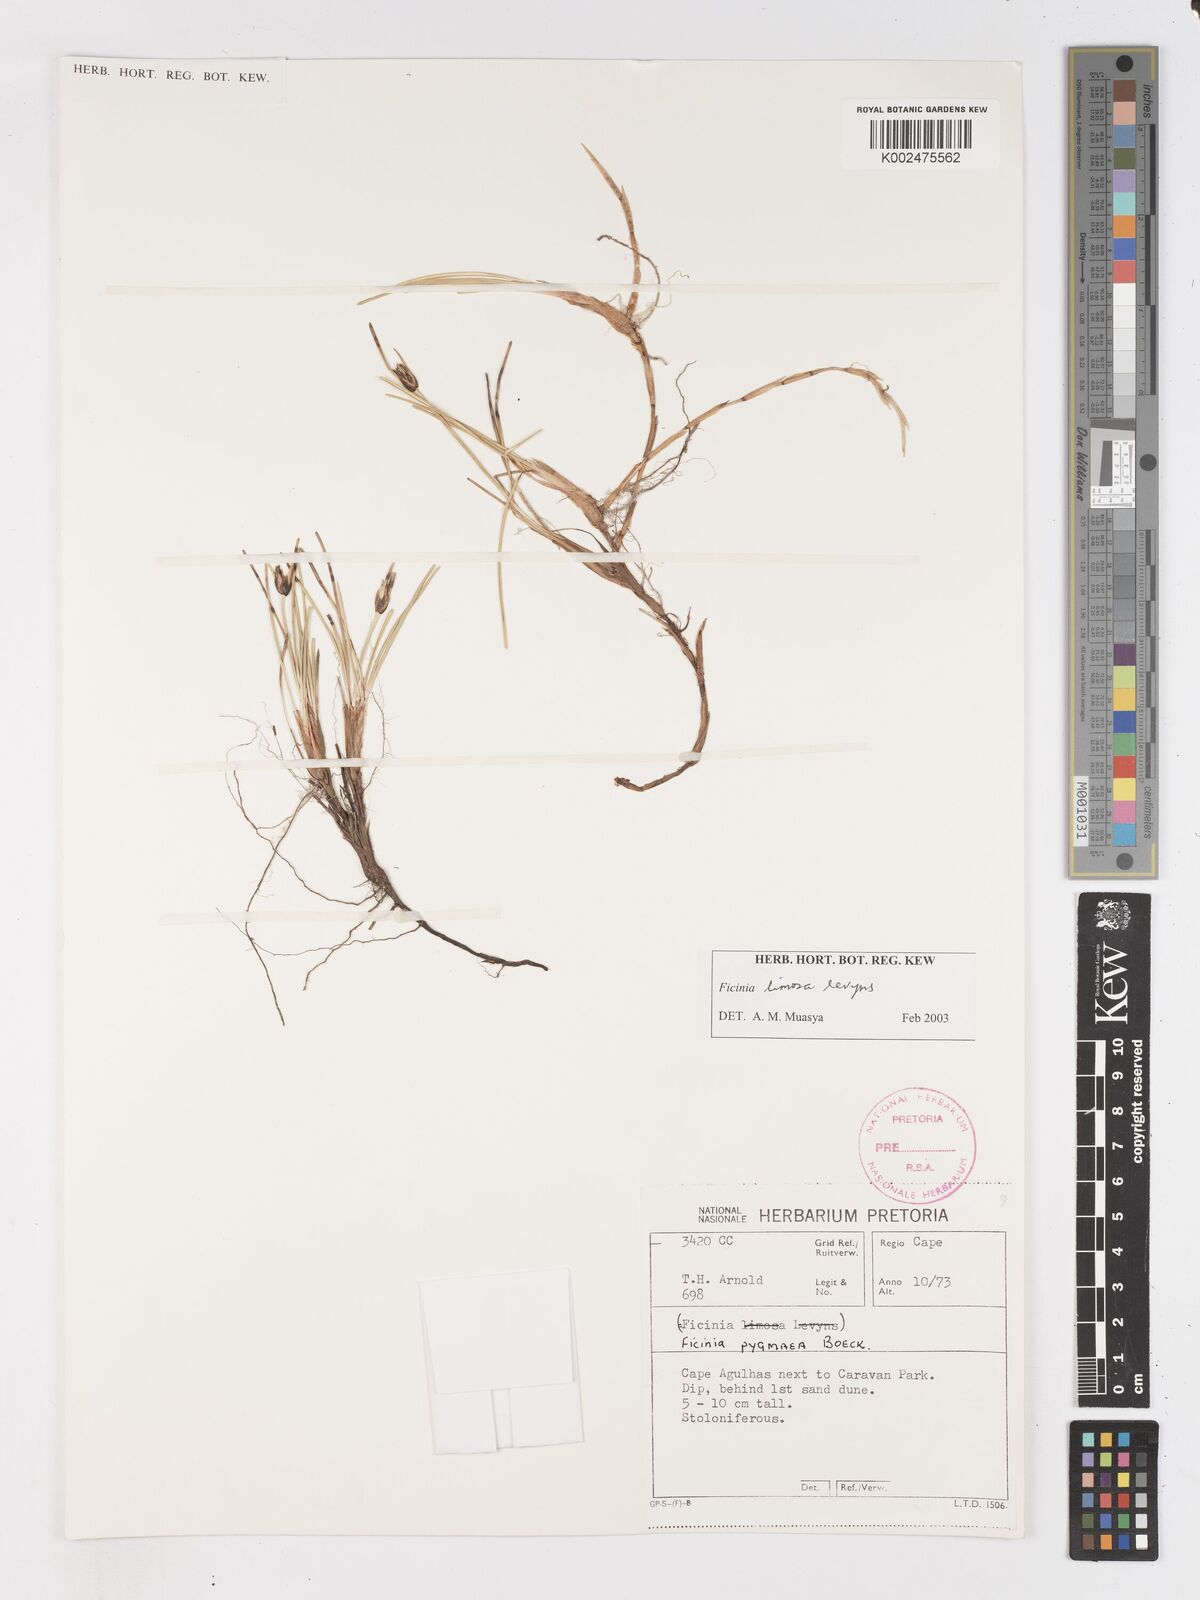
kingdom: Plantae
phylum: Tracheophyta
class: Liliopsida
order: Poales
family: Cyperaceae
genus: Ficinia
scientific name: Ficinia pygmaea
